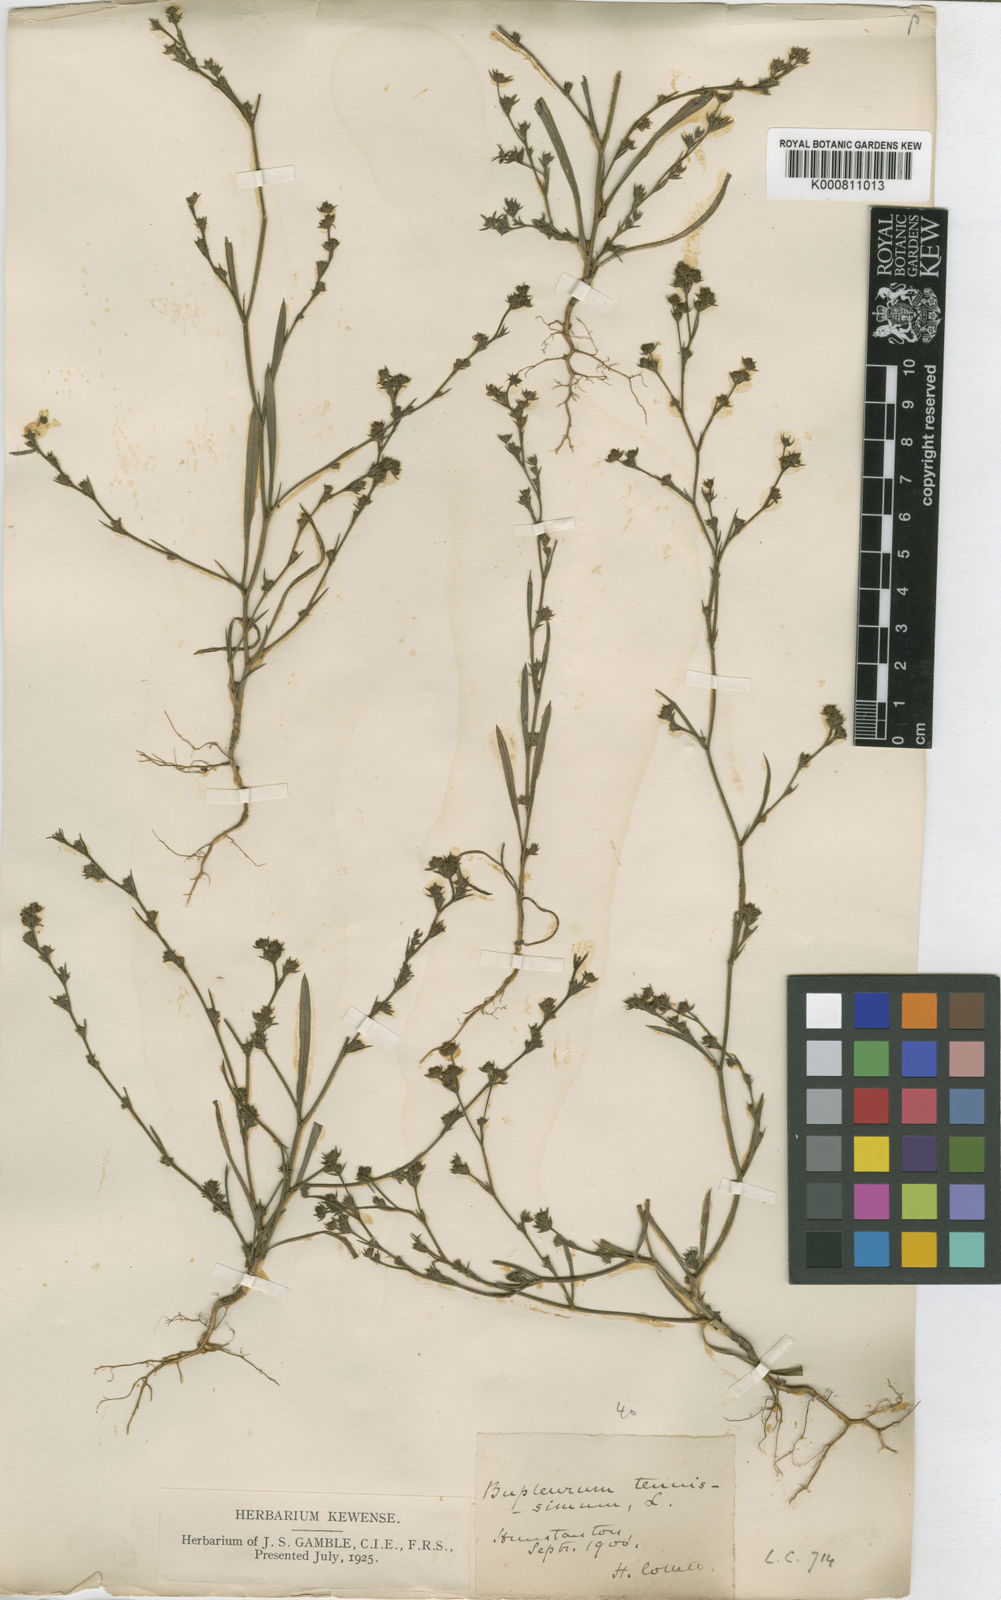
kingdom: Plantae
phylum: Tracheophyta
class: Magnoliopsida
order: Apiales
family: Apiaceae
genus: Bupleurum
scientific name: Bupleurum tenuissimum
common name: Slender hare's-ear
